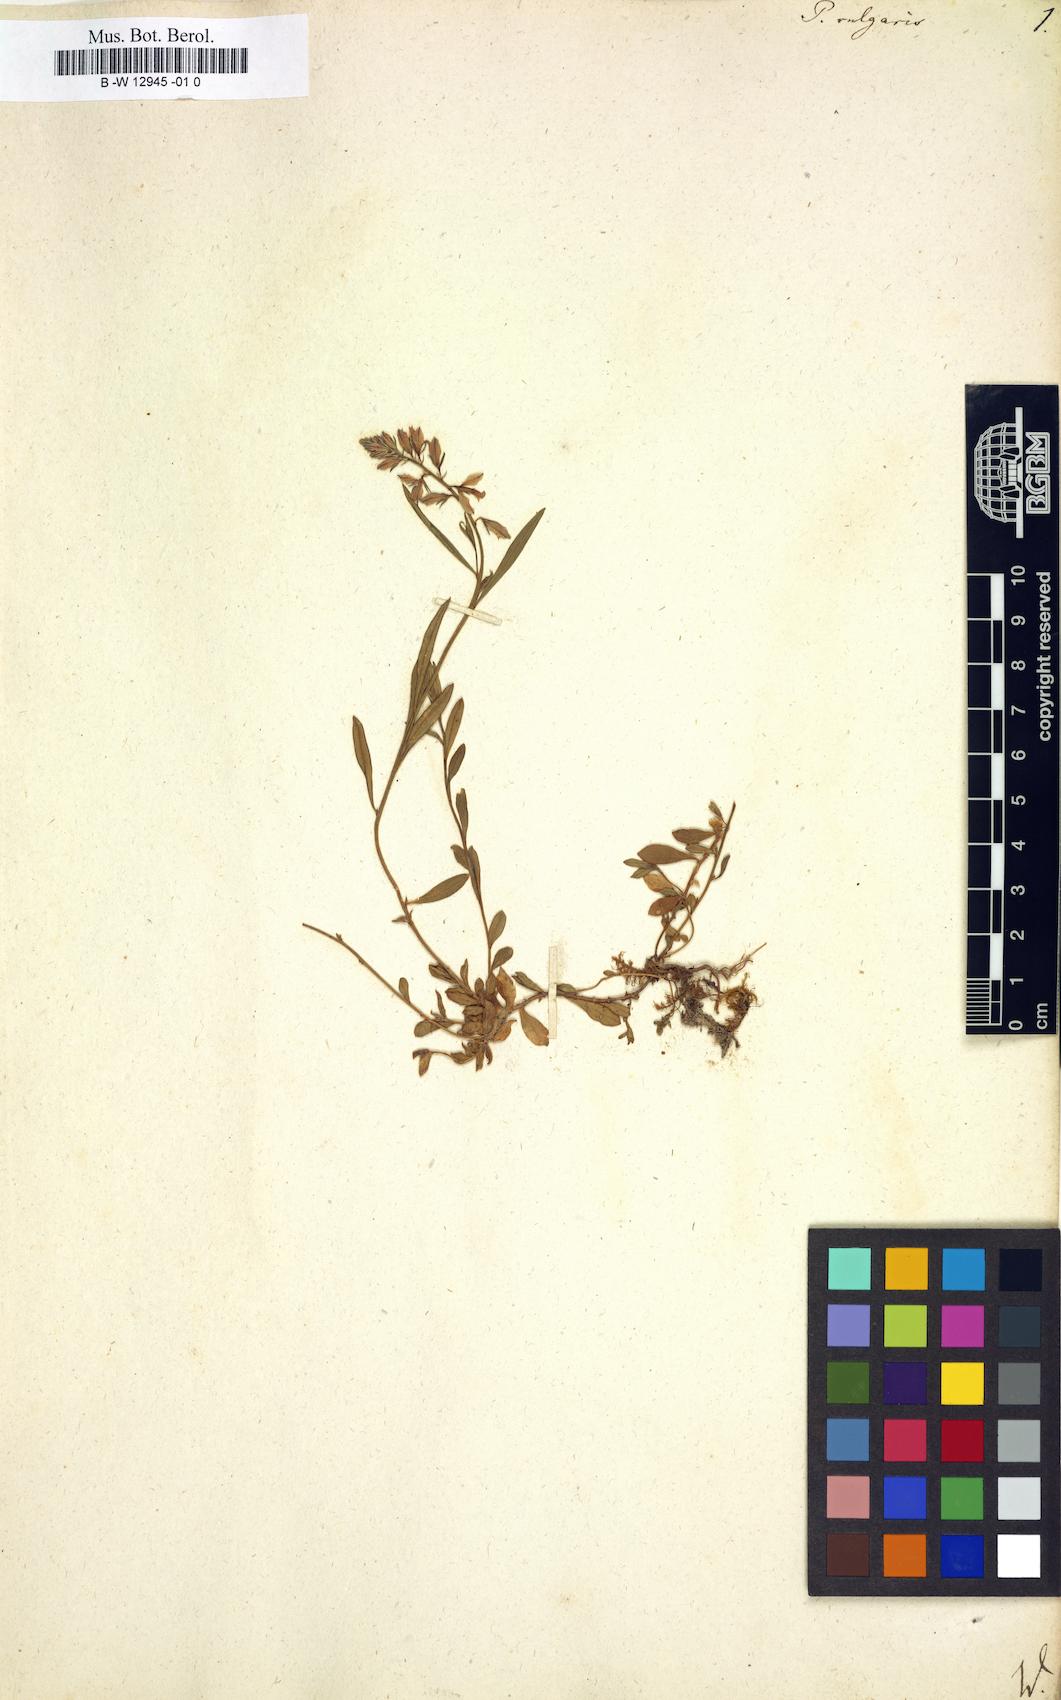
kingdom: Plantae
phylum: Tracheophyta
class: Magnoliopsida
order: Fabales
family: Polygalaceae
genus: Polygala
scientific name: Polygala vulgaris
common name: Common milkwort
